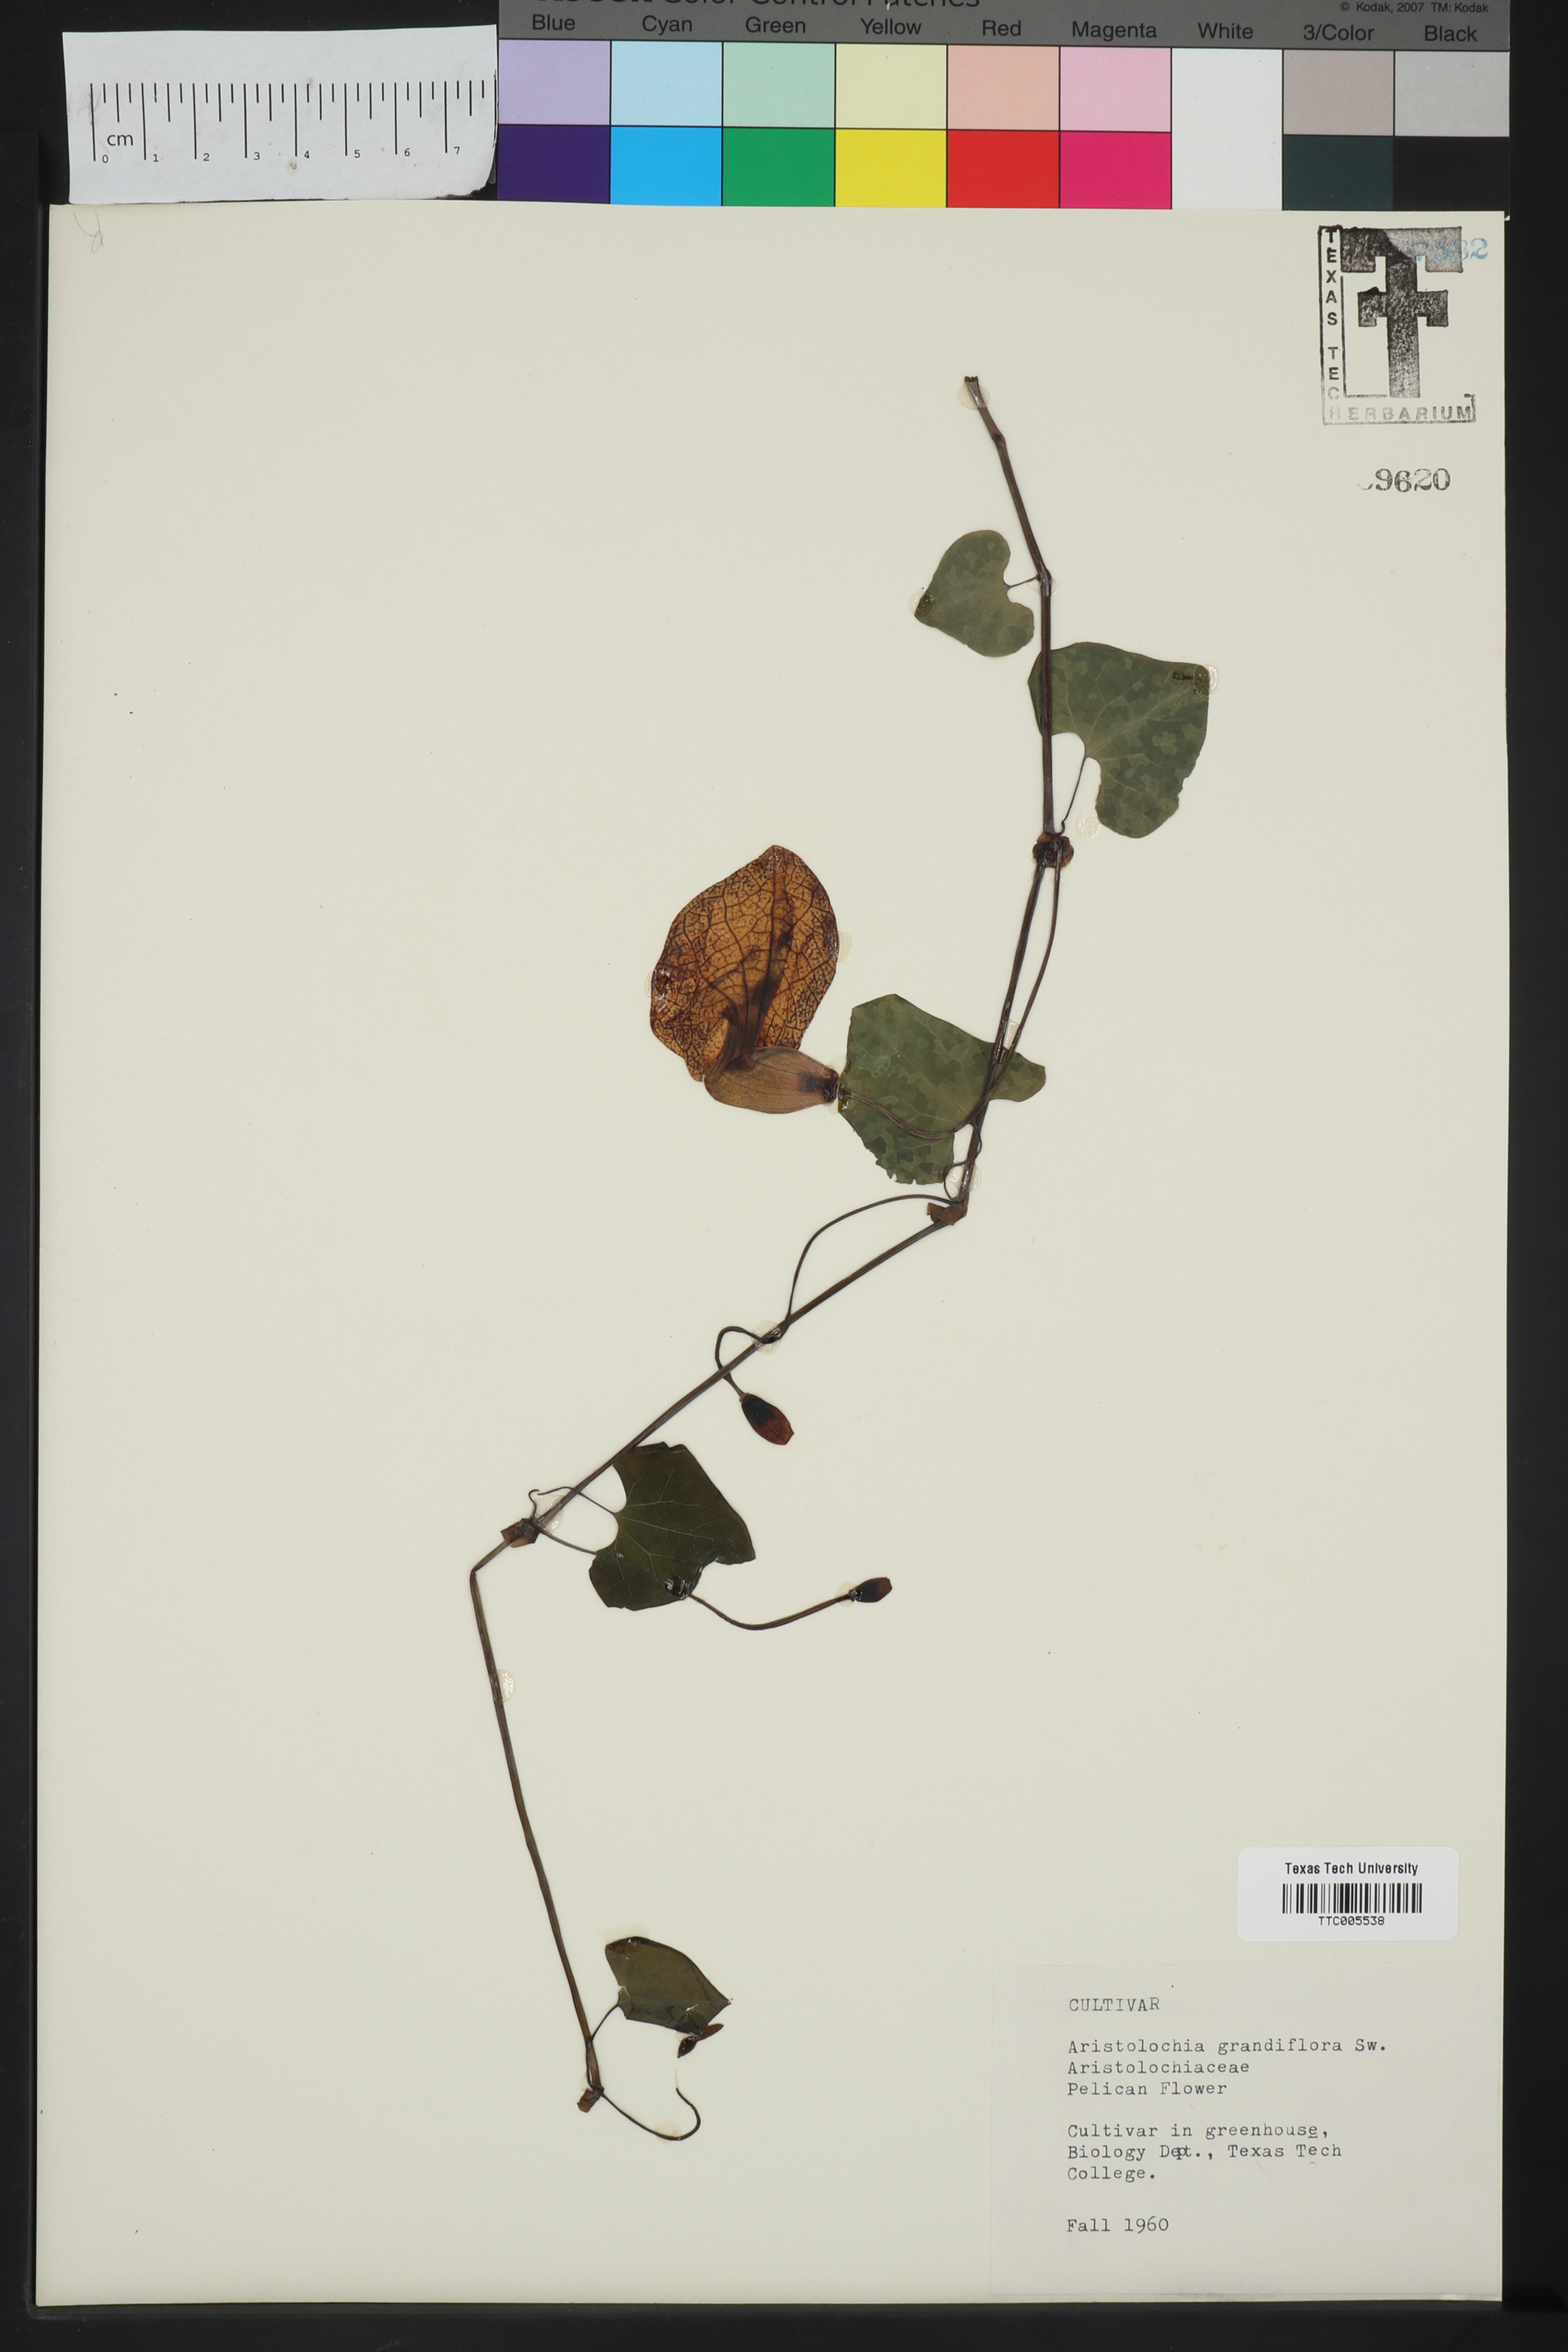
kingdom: Plantae
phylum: Tracheophyta
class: Magnoliopsida
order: Piperales
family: Aristolochiaceae
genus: Aristolochia
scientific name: Aristolochia grandiflora
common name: Pelicanflower
